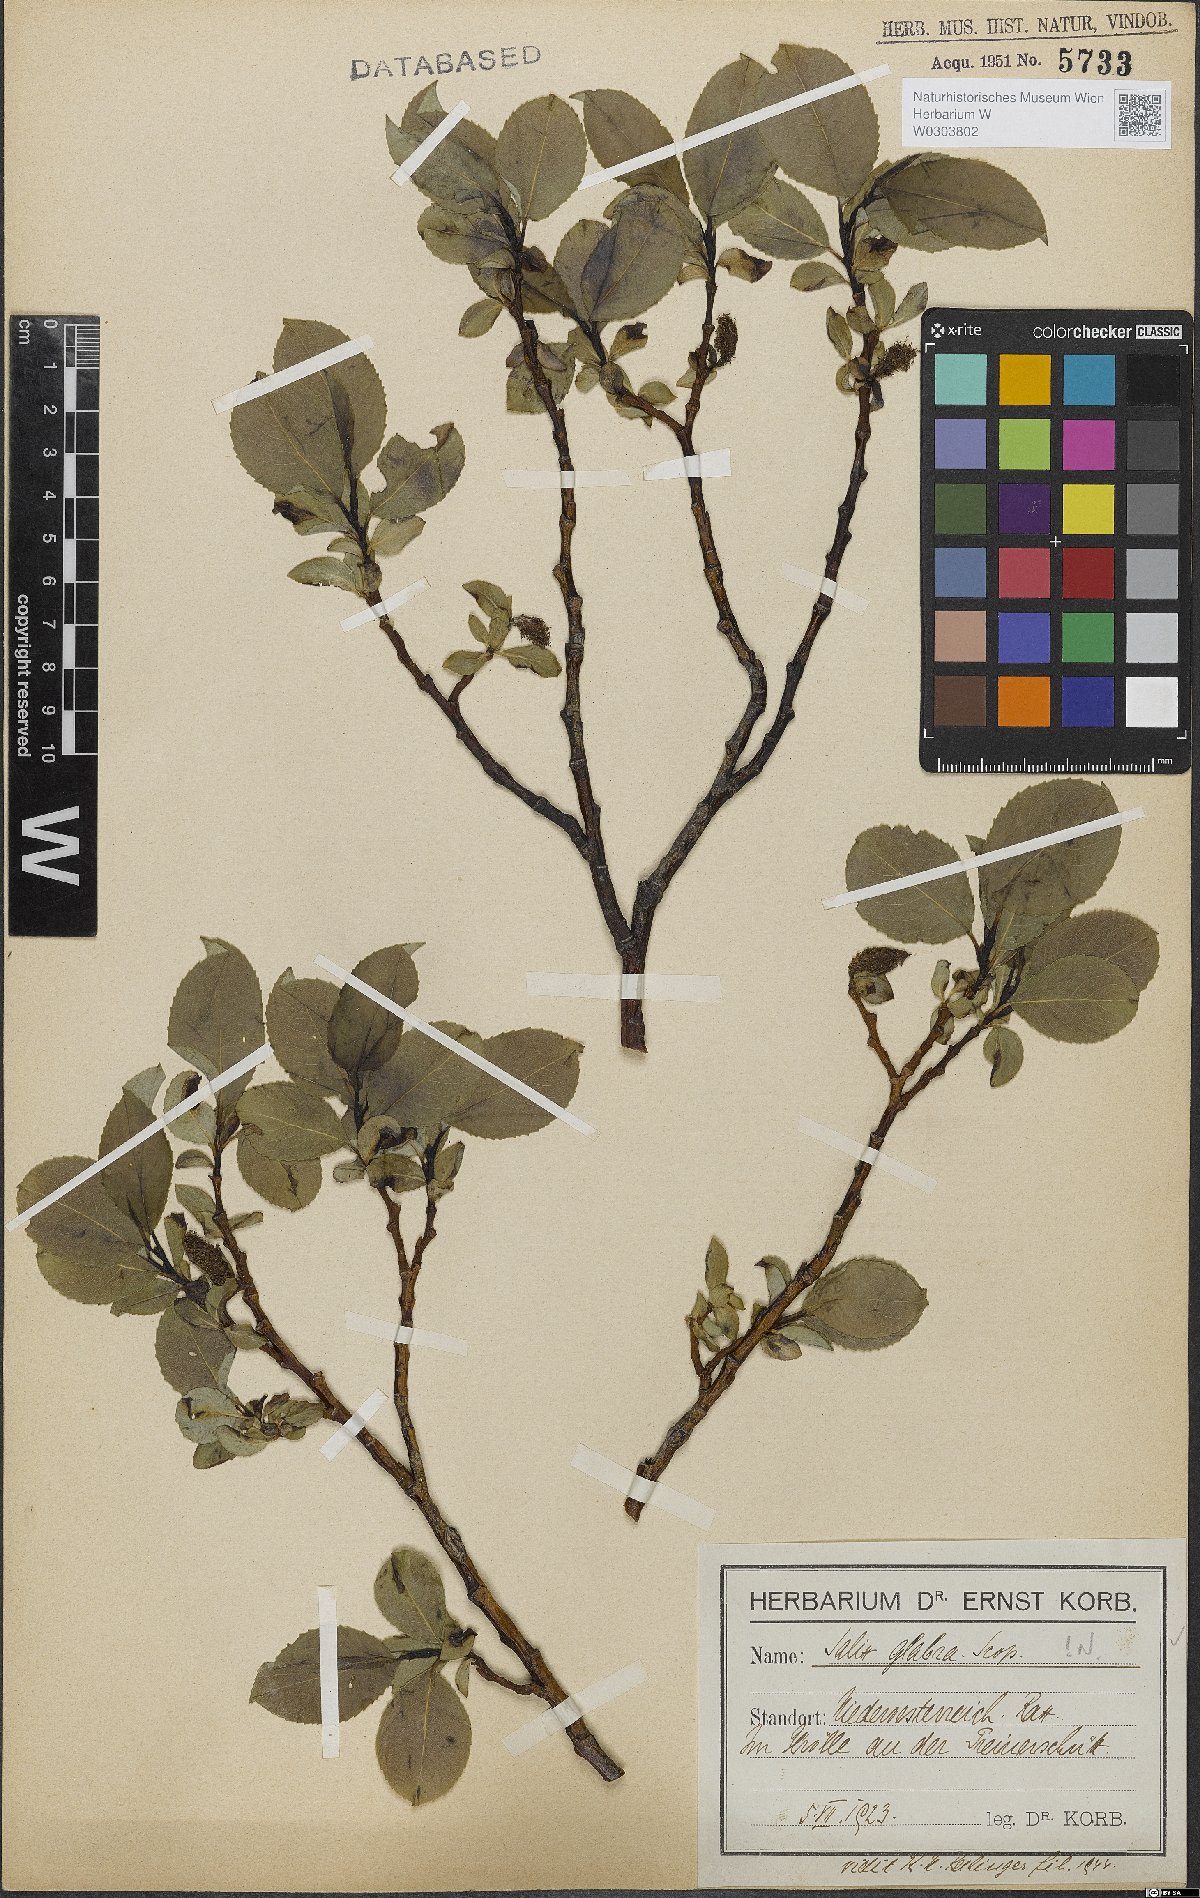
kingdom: Plantae
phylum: Tracheophyta
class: Magnoliopsida
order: Malpighiales
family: Salicaceae
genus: Salix
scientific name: Salix glabra
